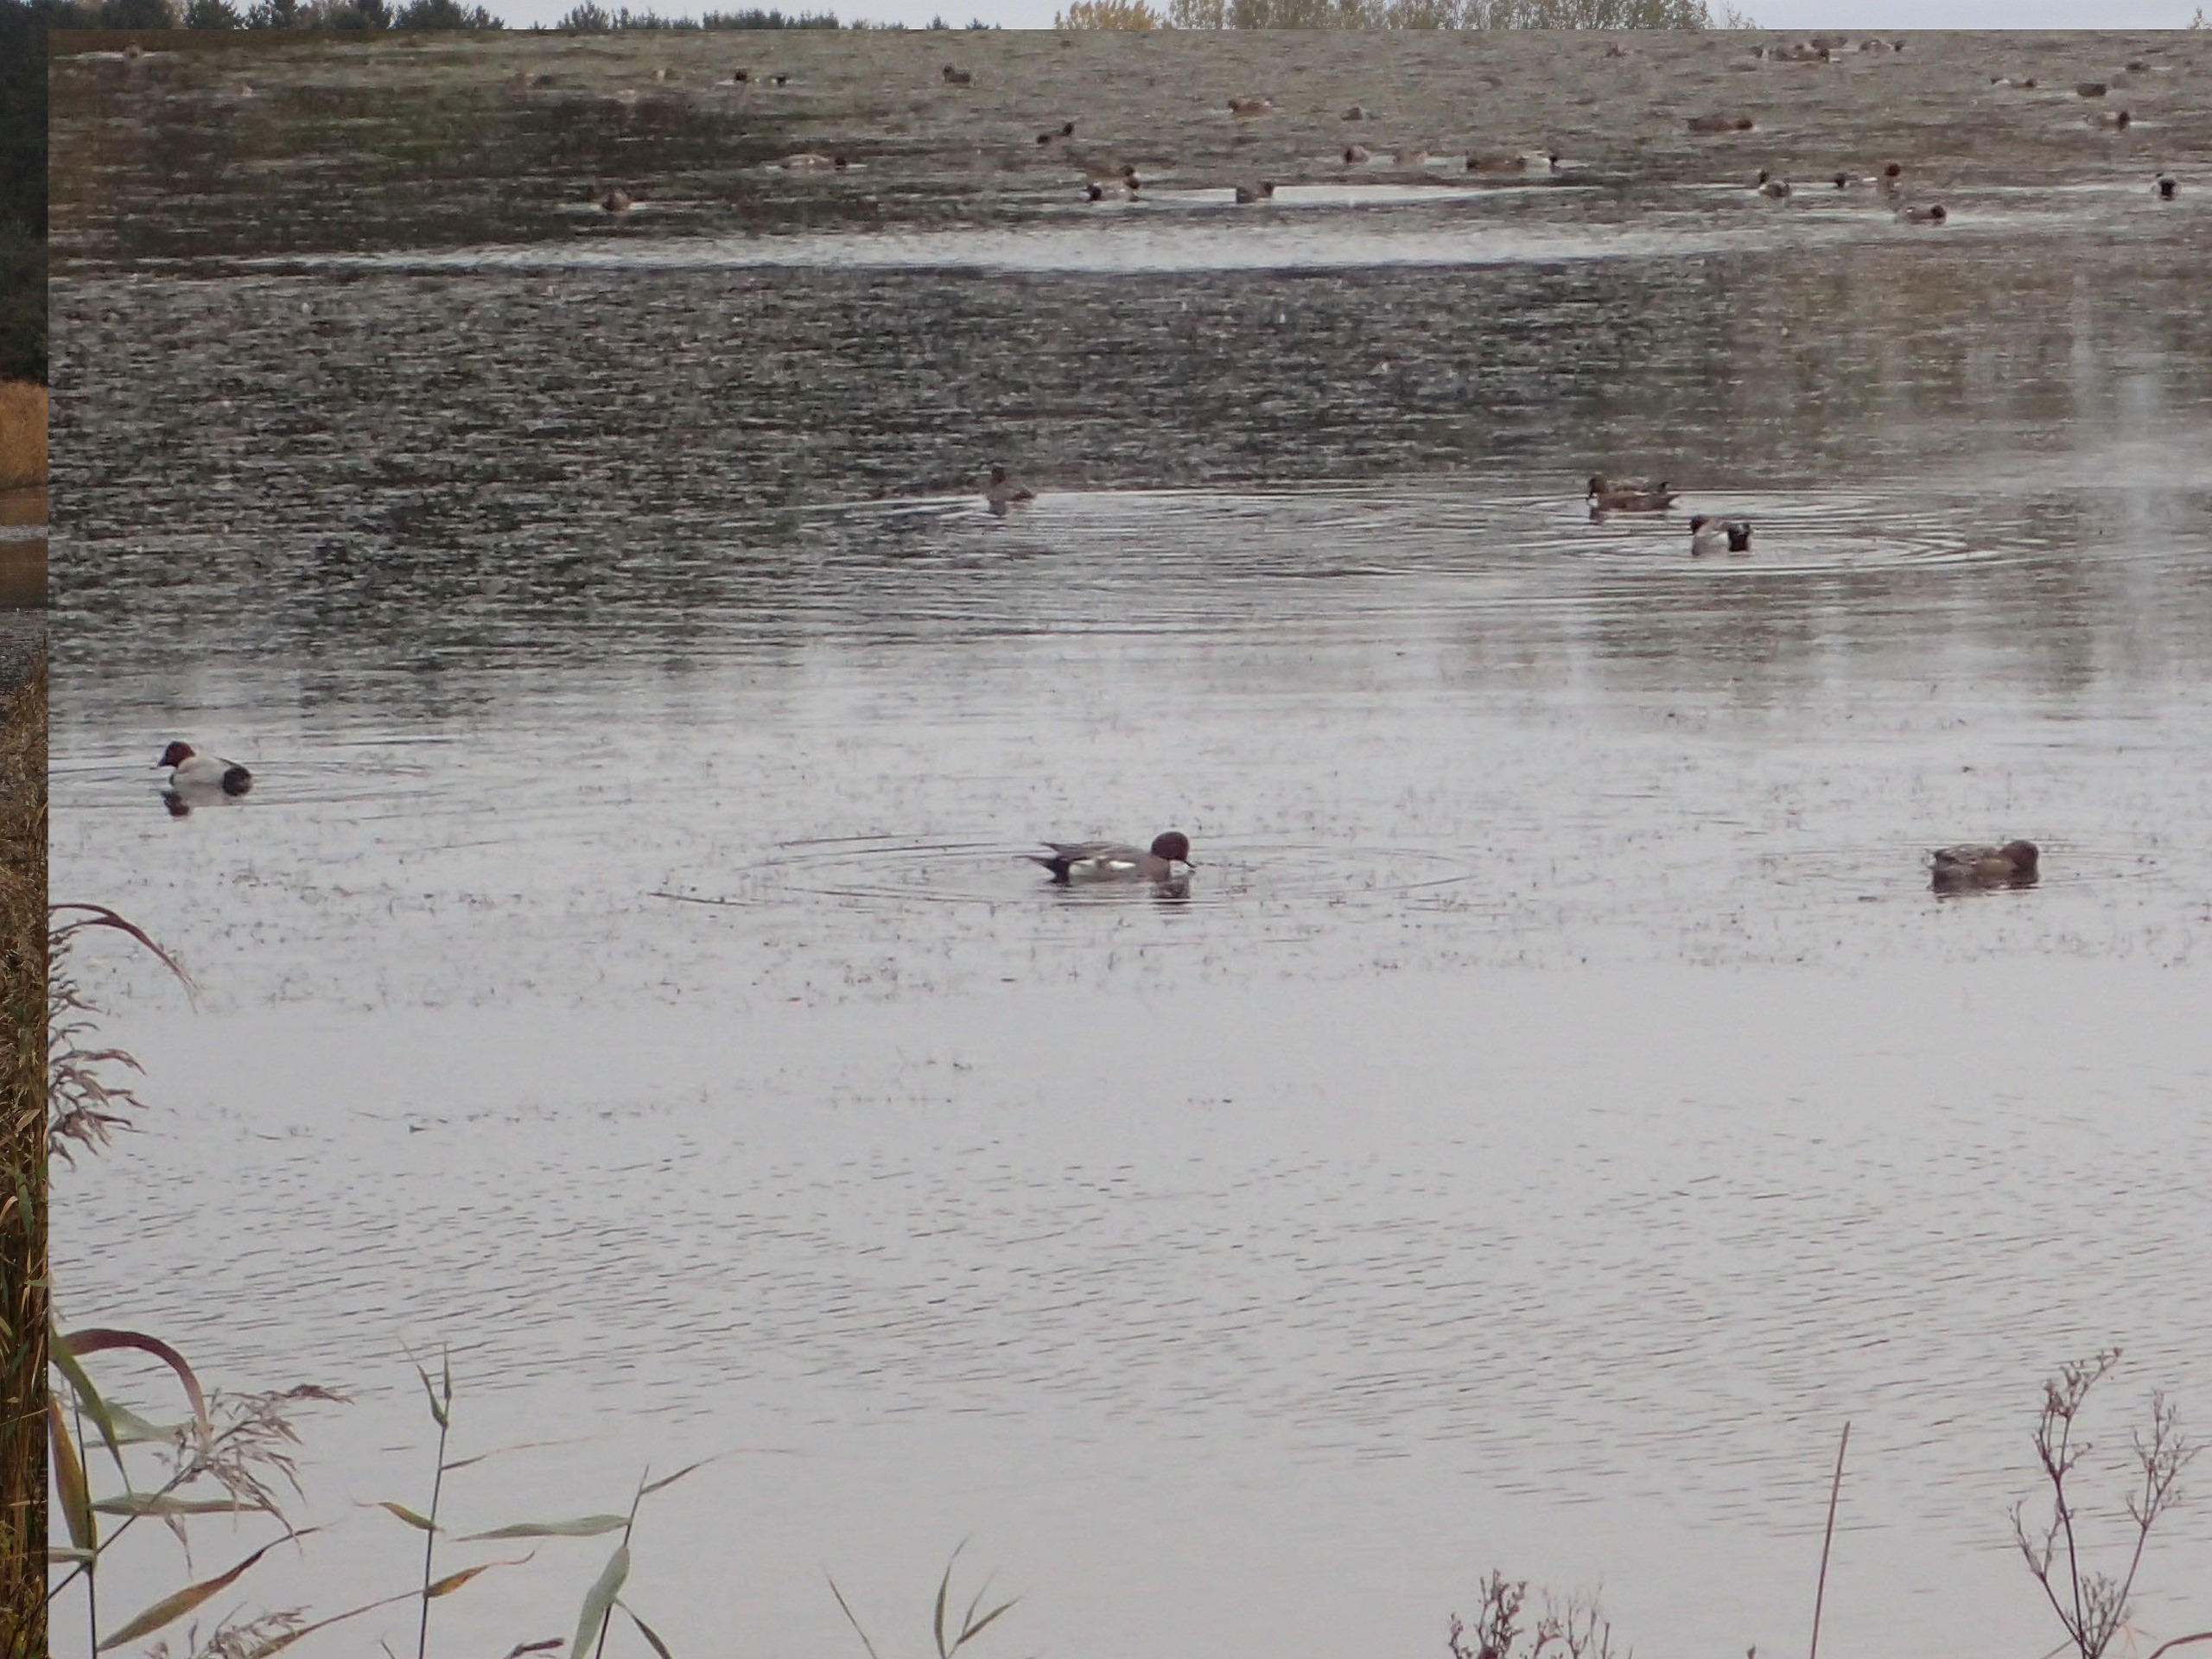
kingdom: Animalia
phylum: Chordata
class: Aves
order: Anseriformes
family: Anatidae
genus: Mareca
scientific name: Mareca penelope
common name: Pibeand
